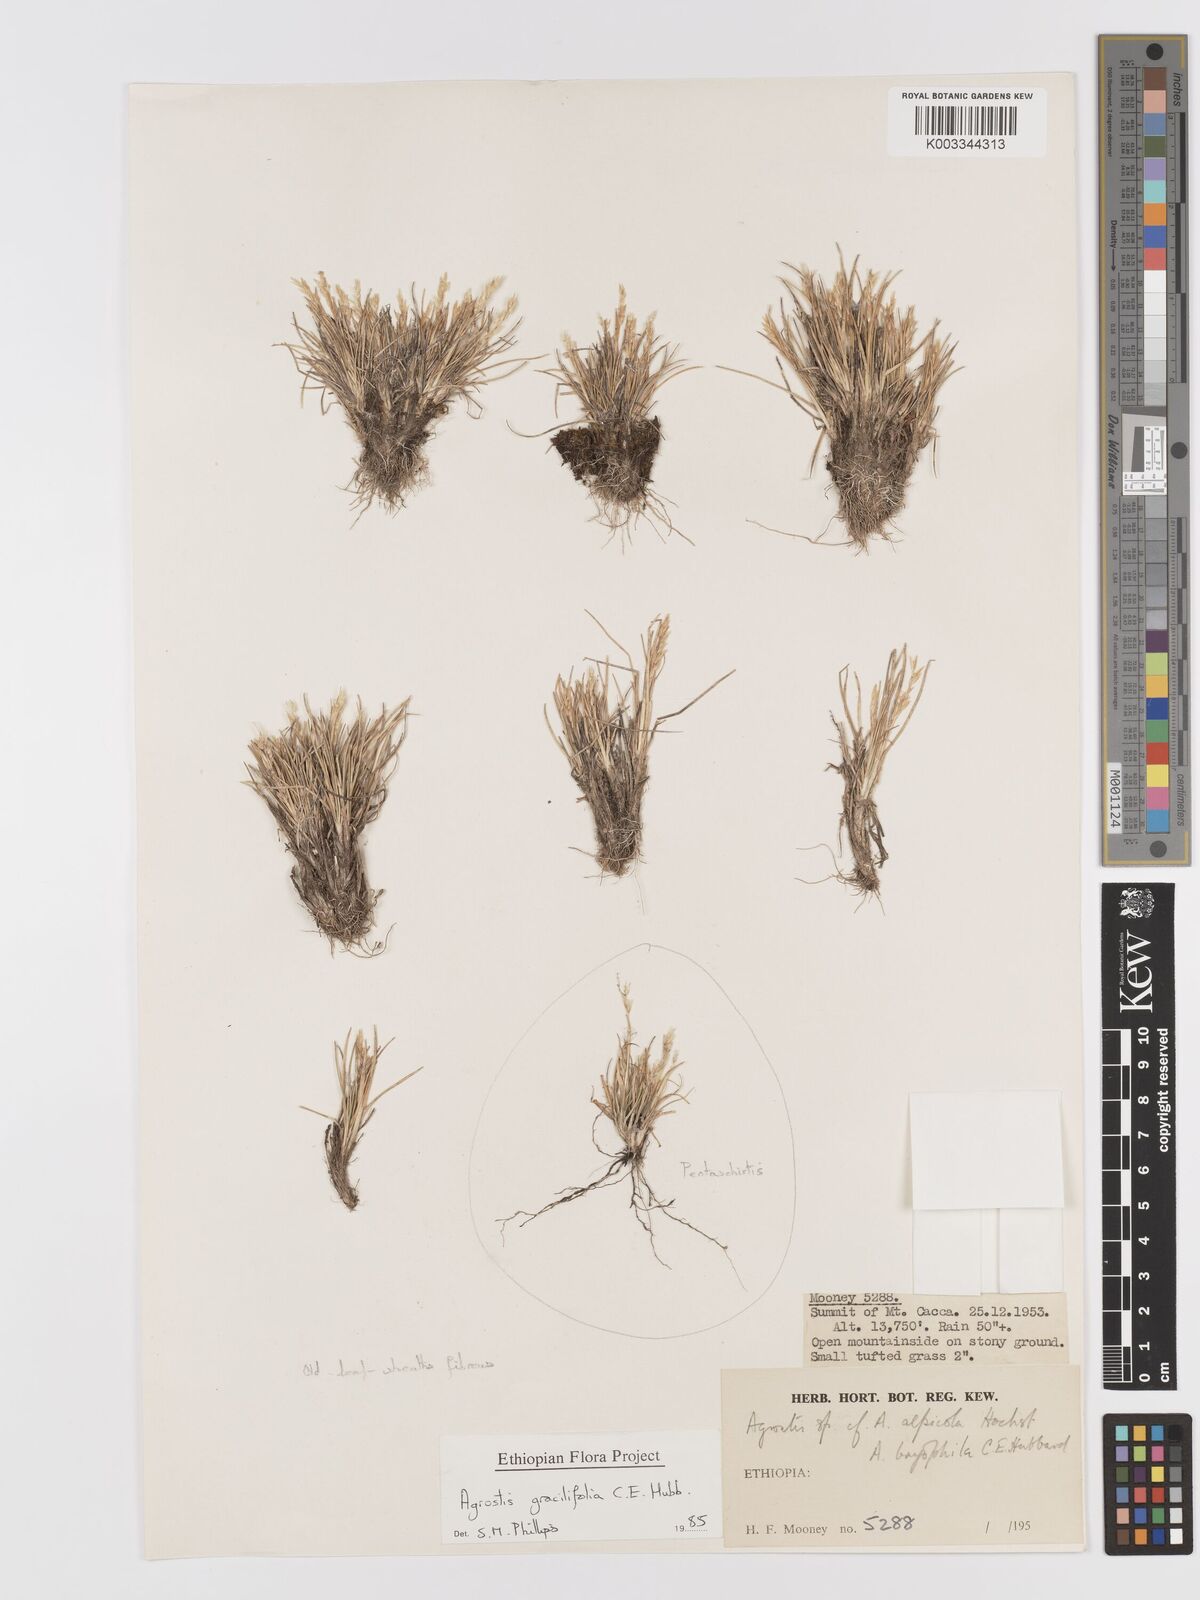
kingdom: Plantae
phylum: Tracheophyta
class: Liliopsida
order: Poales
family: Poaceae
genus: Agrostis
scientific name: Agrostis gracilifolia
